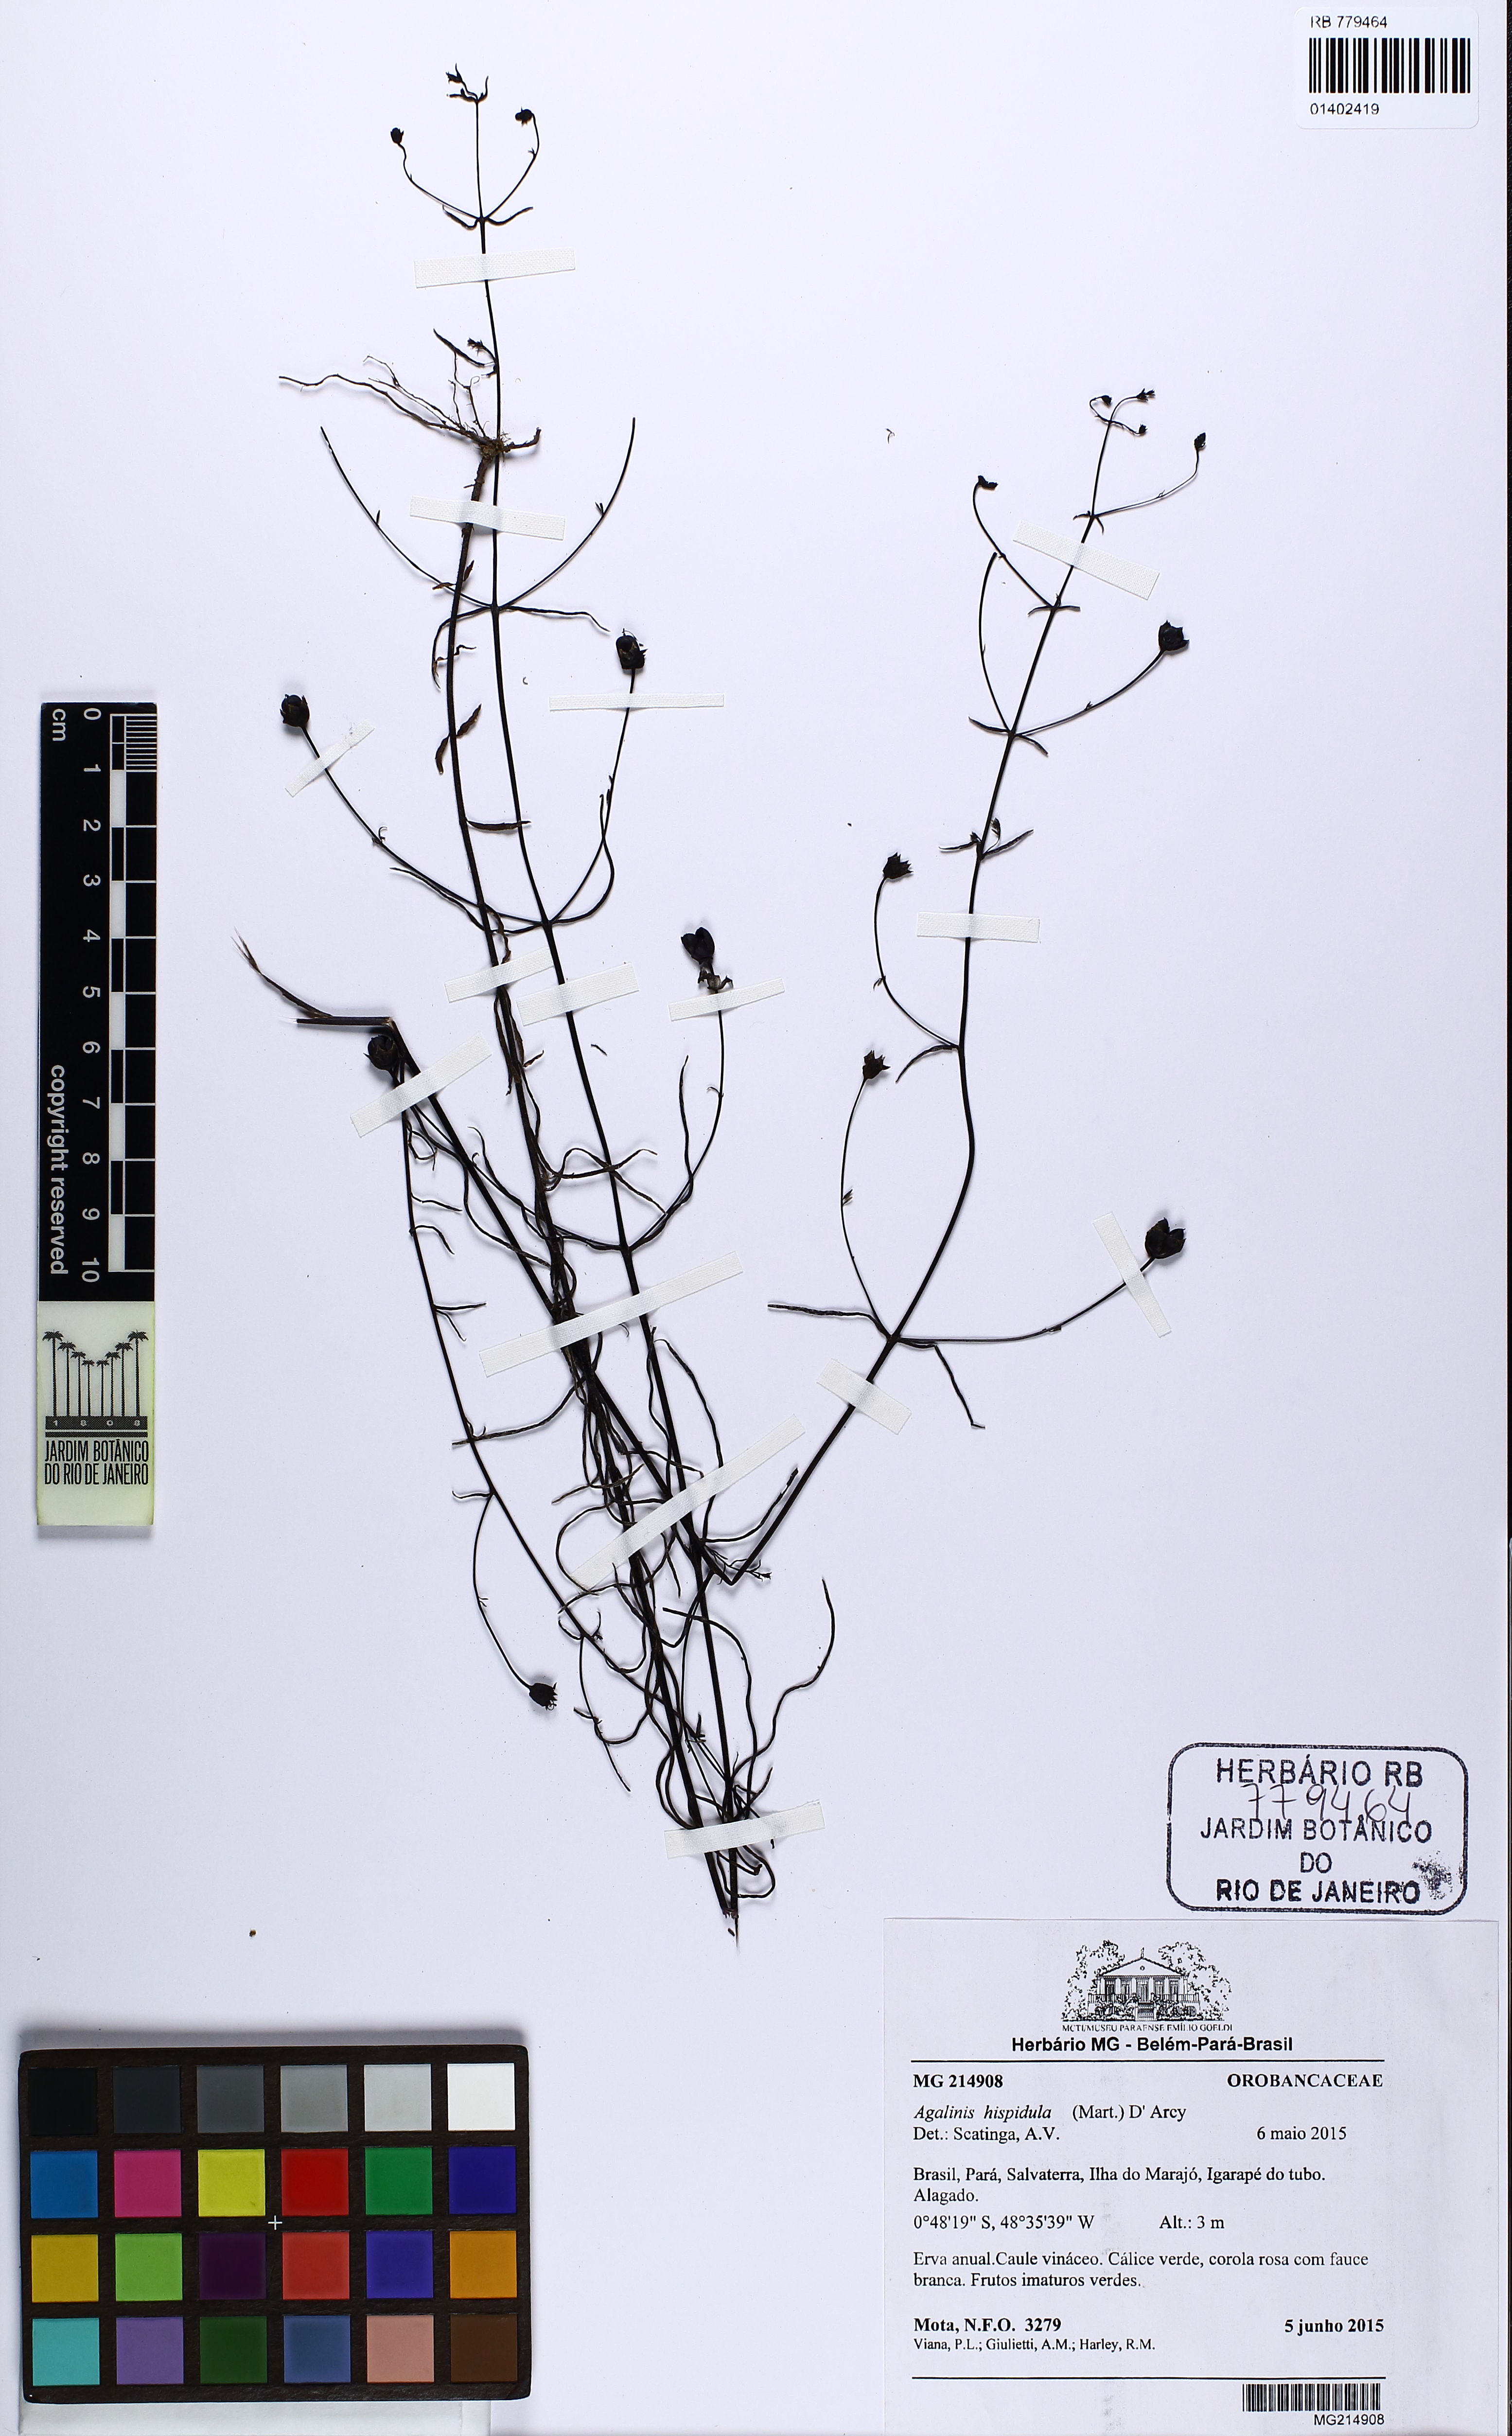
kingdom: Plantae
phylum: Tracheophyta
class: Magnoliopsida
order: Lamiales
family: Orobanchaceae
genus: Agalinis
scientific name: Agalinis hispidula
